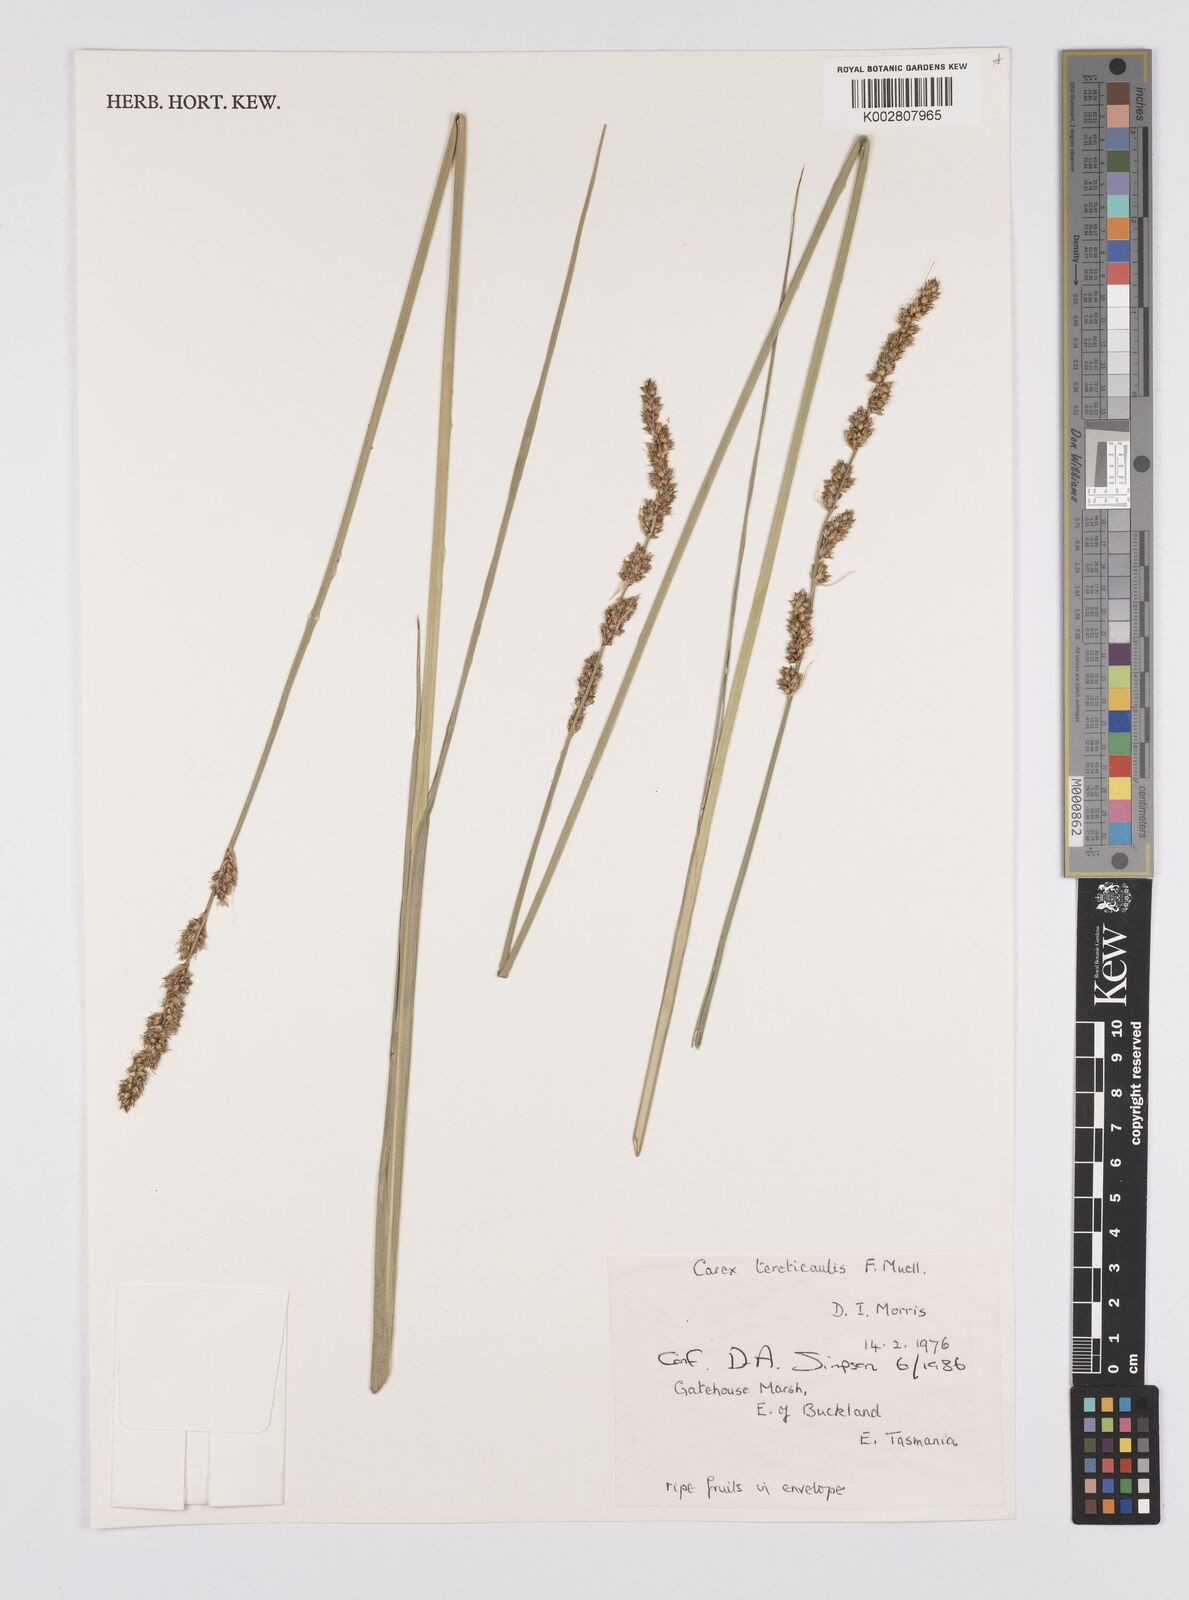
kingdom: Plantae
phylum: Tracheophyta
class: Liliopsida
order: Poales
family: Cyperaceae
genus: Carex
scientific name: Carex tereticaulis
